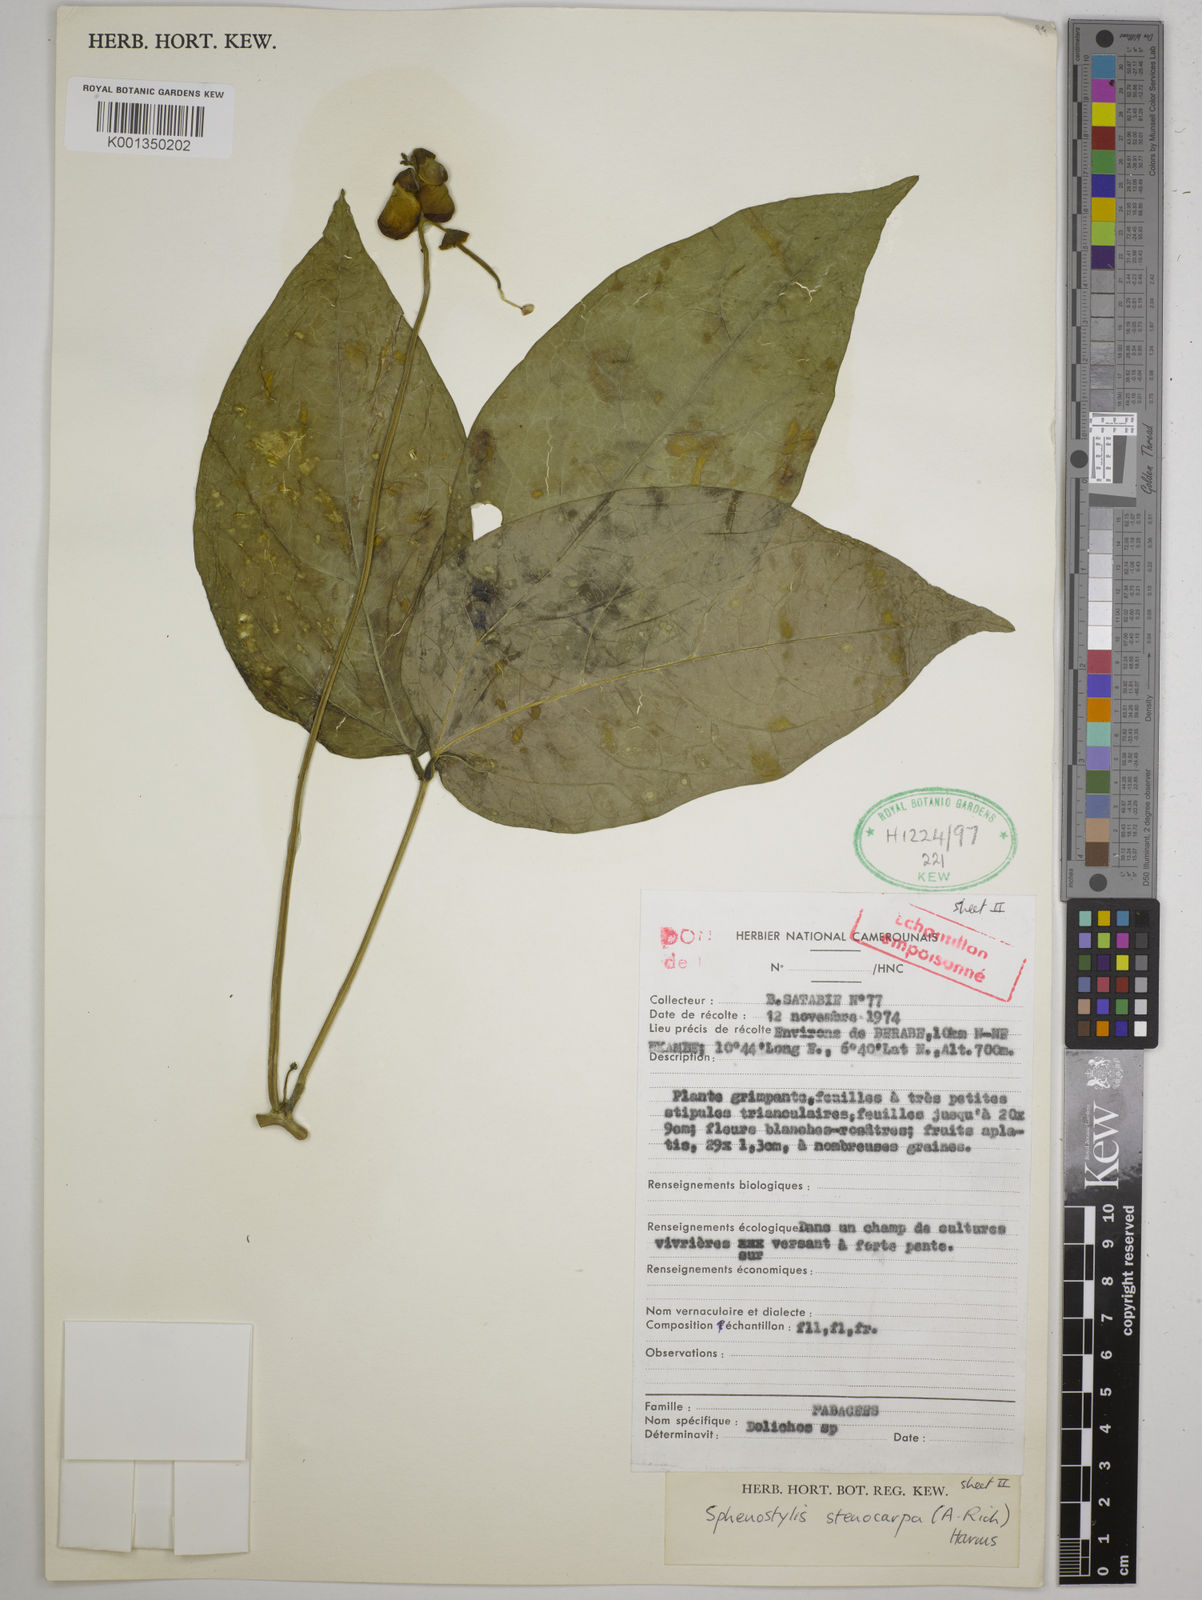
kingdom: Plantae
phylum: Tracheophyta
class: Magnoliopsida
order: Fabales
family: Fabaceae
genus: Sphenostylis
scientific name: Sphenostylis stenocarpa
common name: Yam-pea
